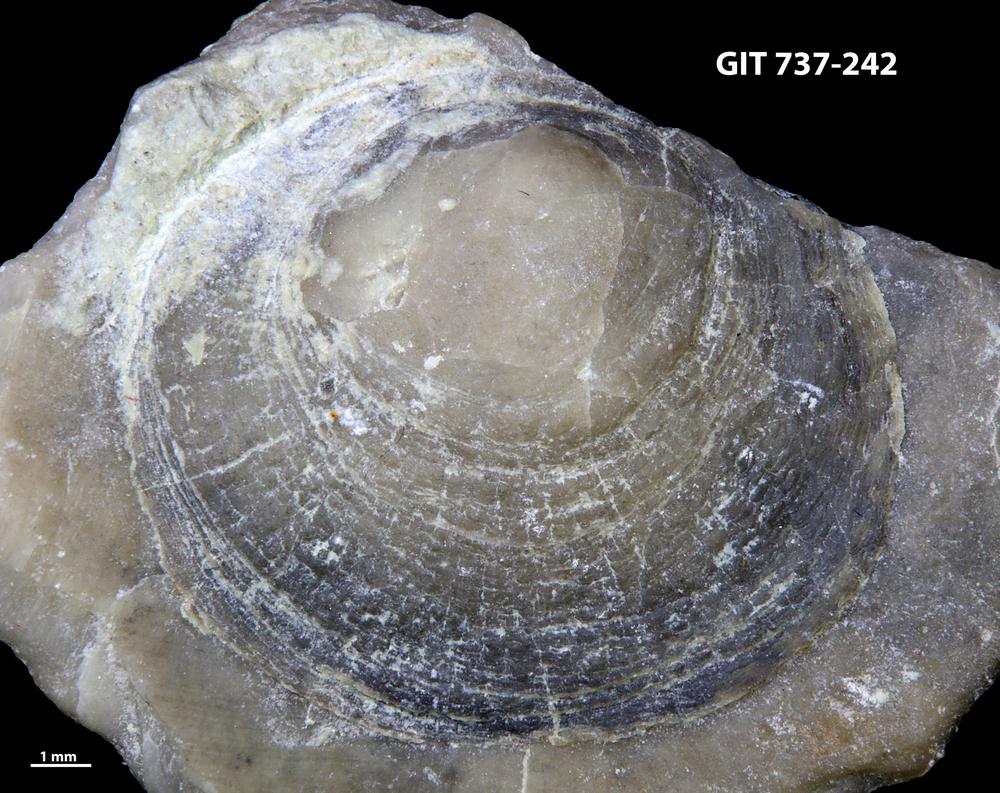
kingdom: Animalia
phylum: Brachiopoda
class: Craniata
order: Craniida
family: Craniidae
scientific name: Craniidae
